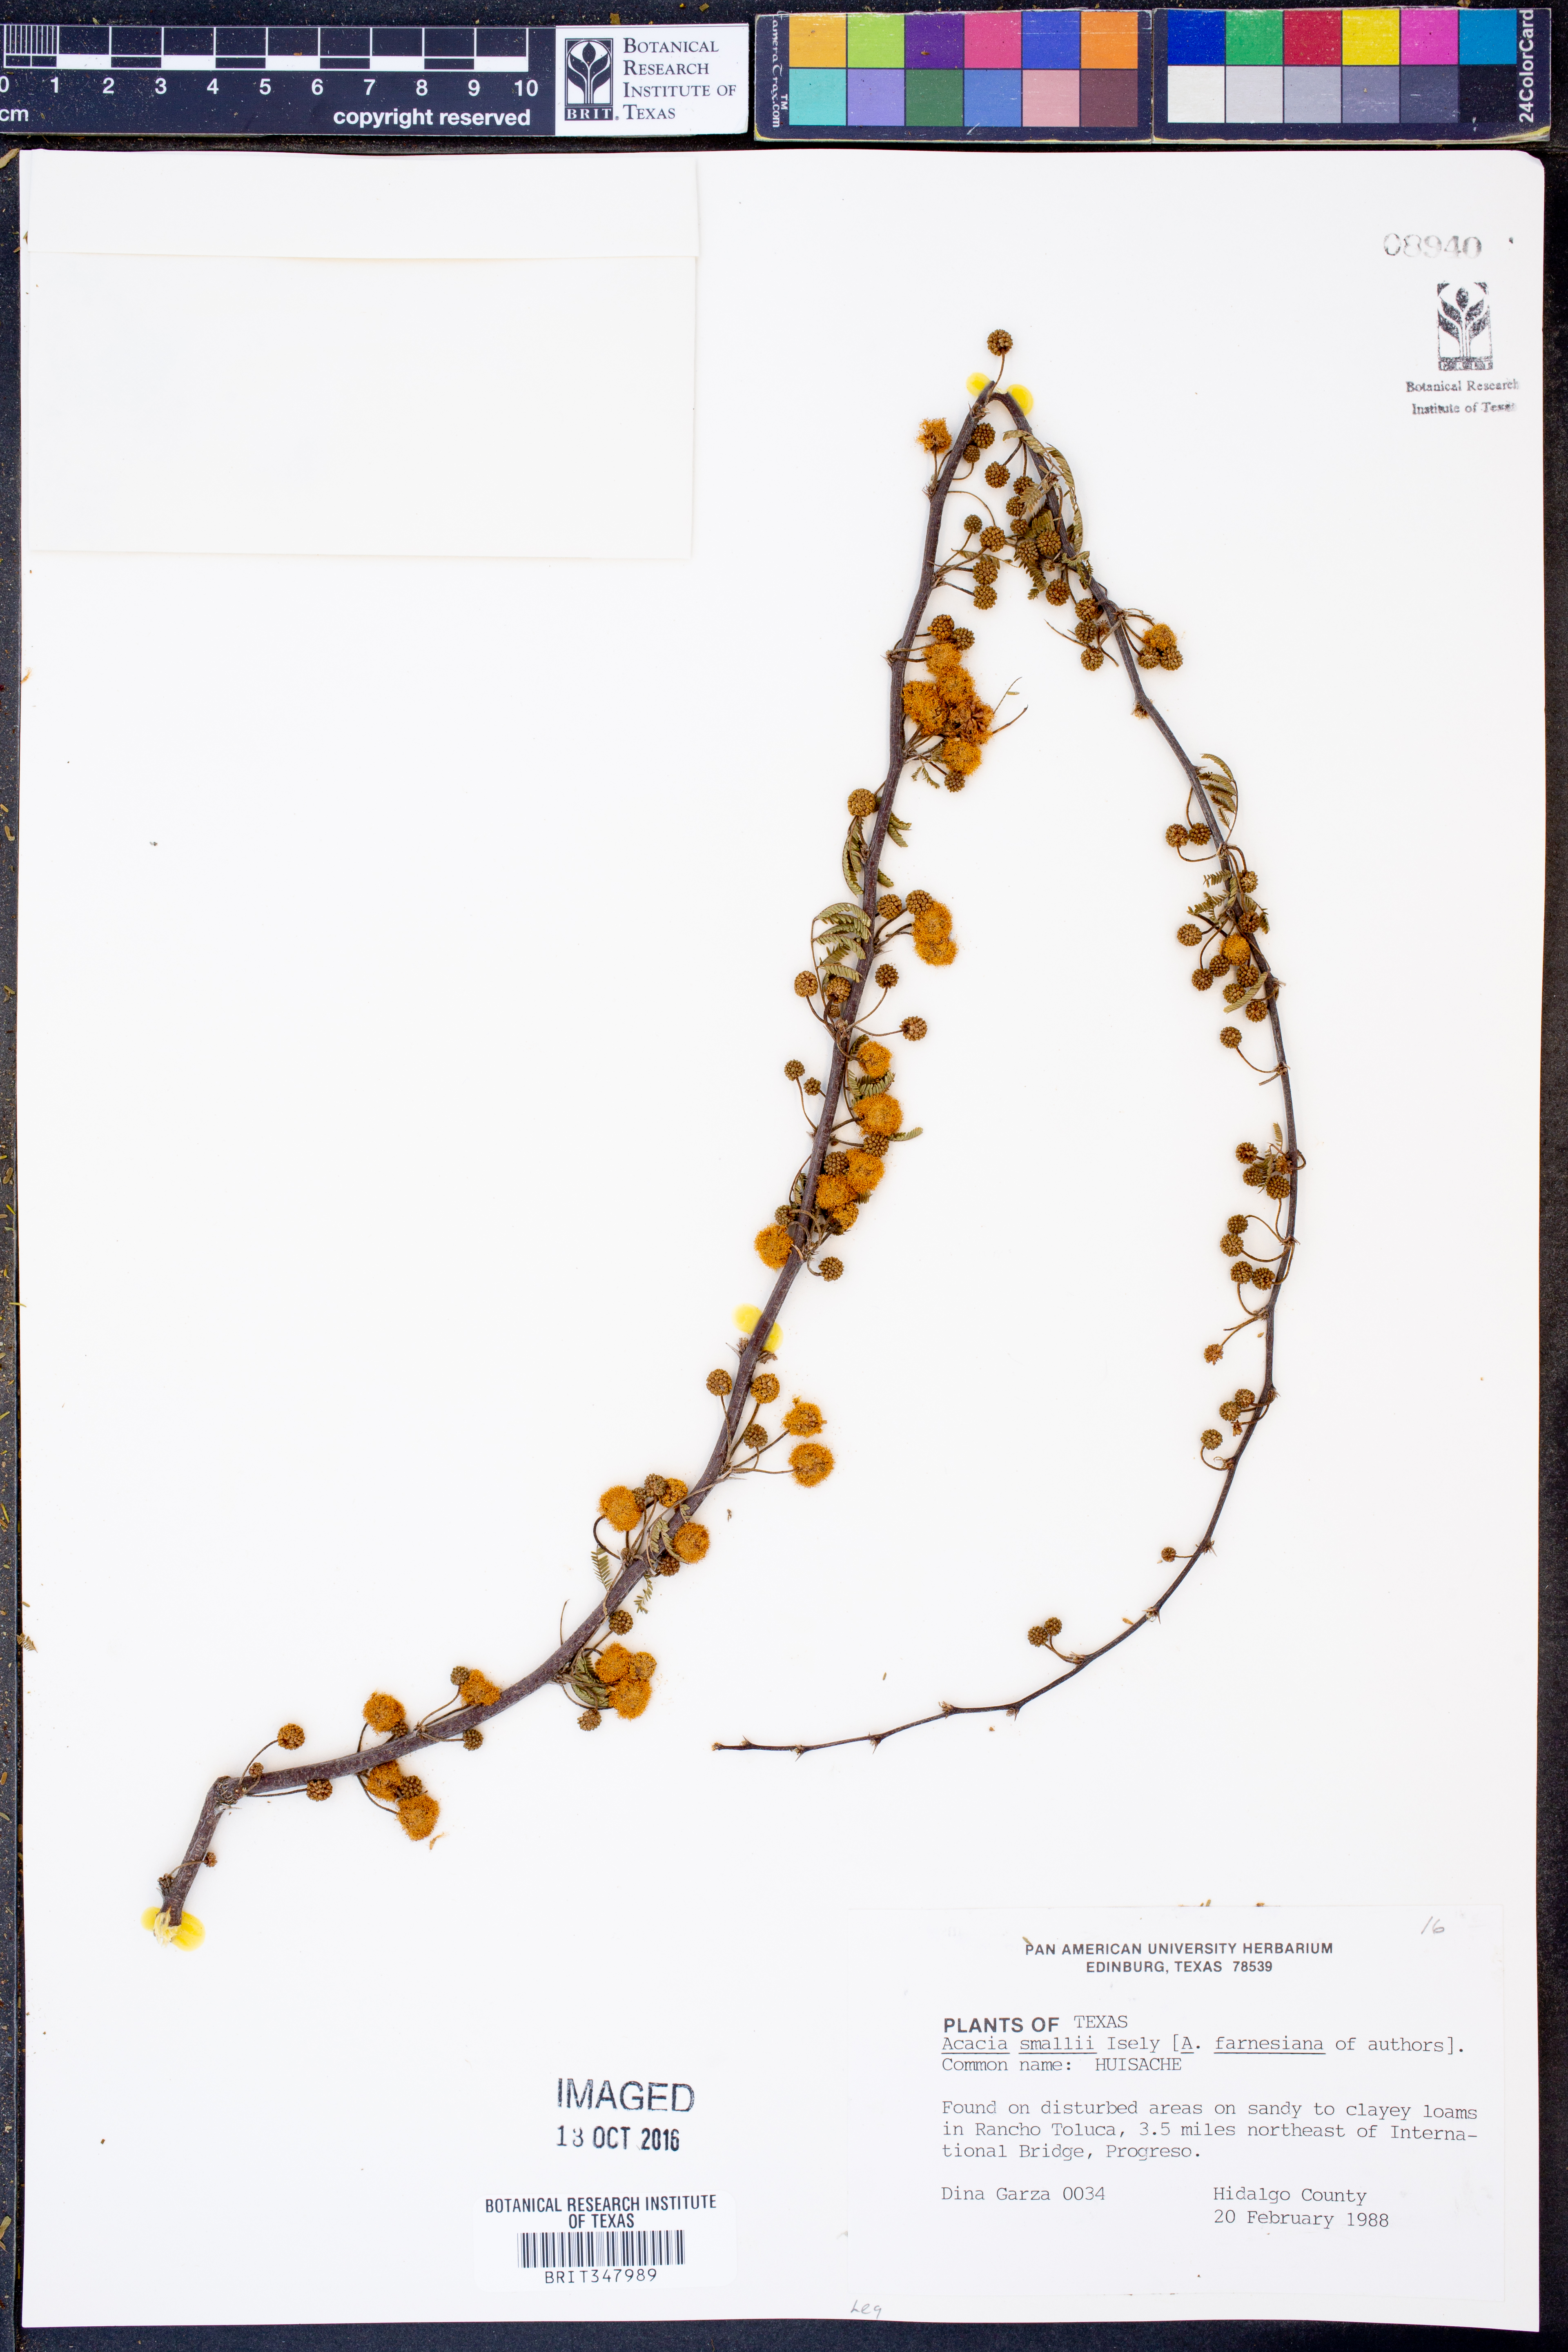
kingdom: Plantae
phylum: Tracheophyta
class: Magnoliopsida
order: Fabales
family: Fabaceae
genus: Vachellia
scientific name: Vachellia farnesiana
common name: Sweet acacia
